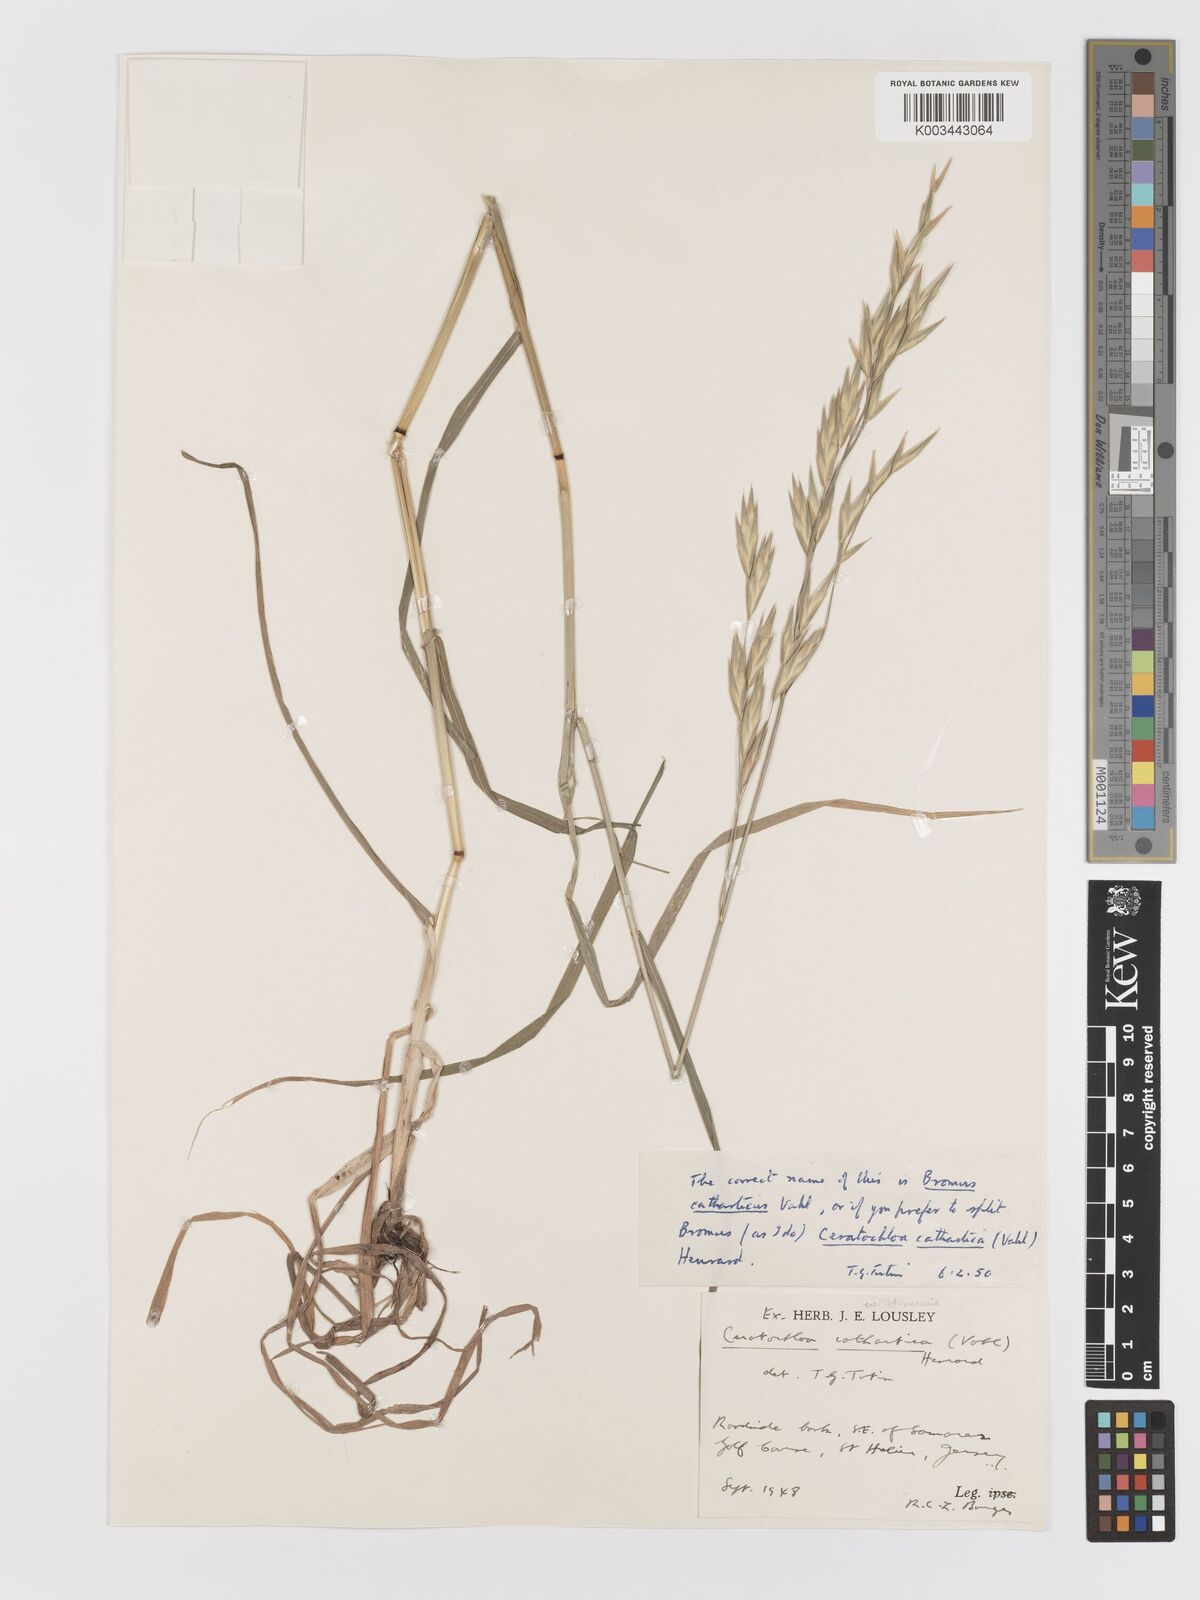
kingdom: Plantae
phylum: Tracheophyta
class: Liliopsida
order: Poales
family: Poaceae
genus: Bromus
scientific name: Bromus catharticus
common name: Rescuegrass
